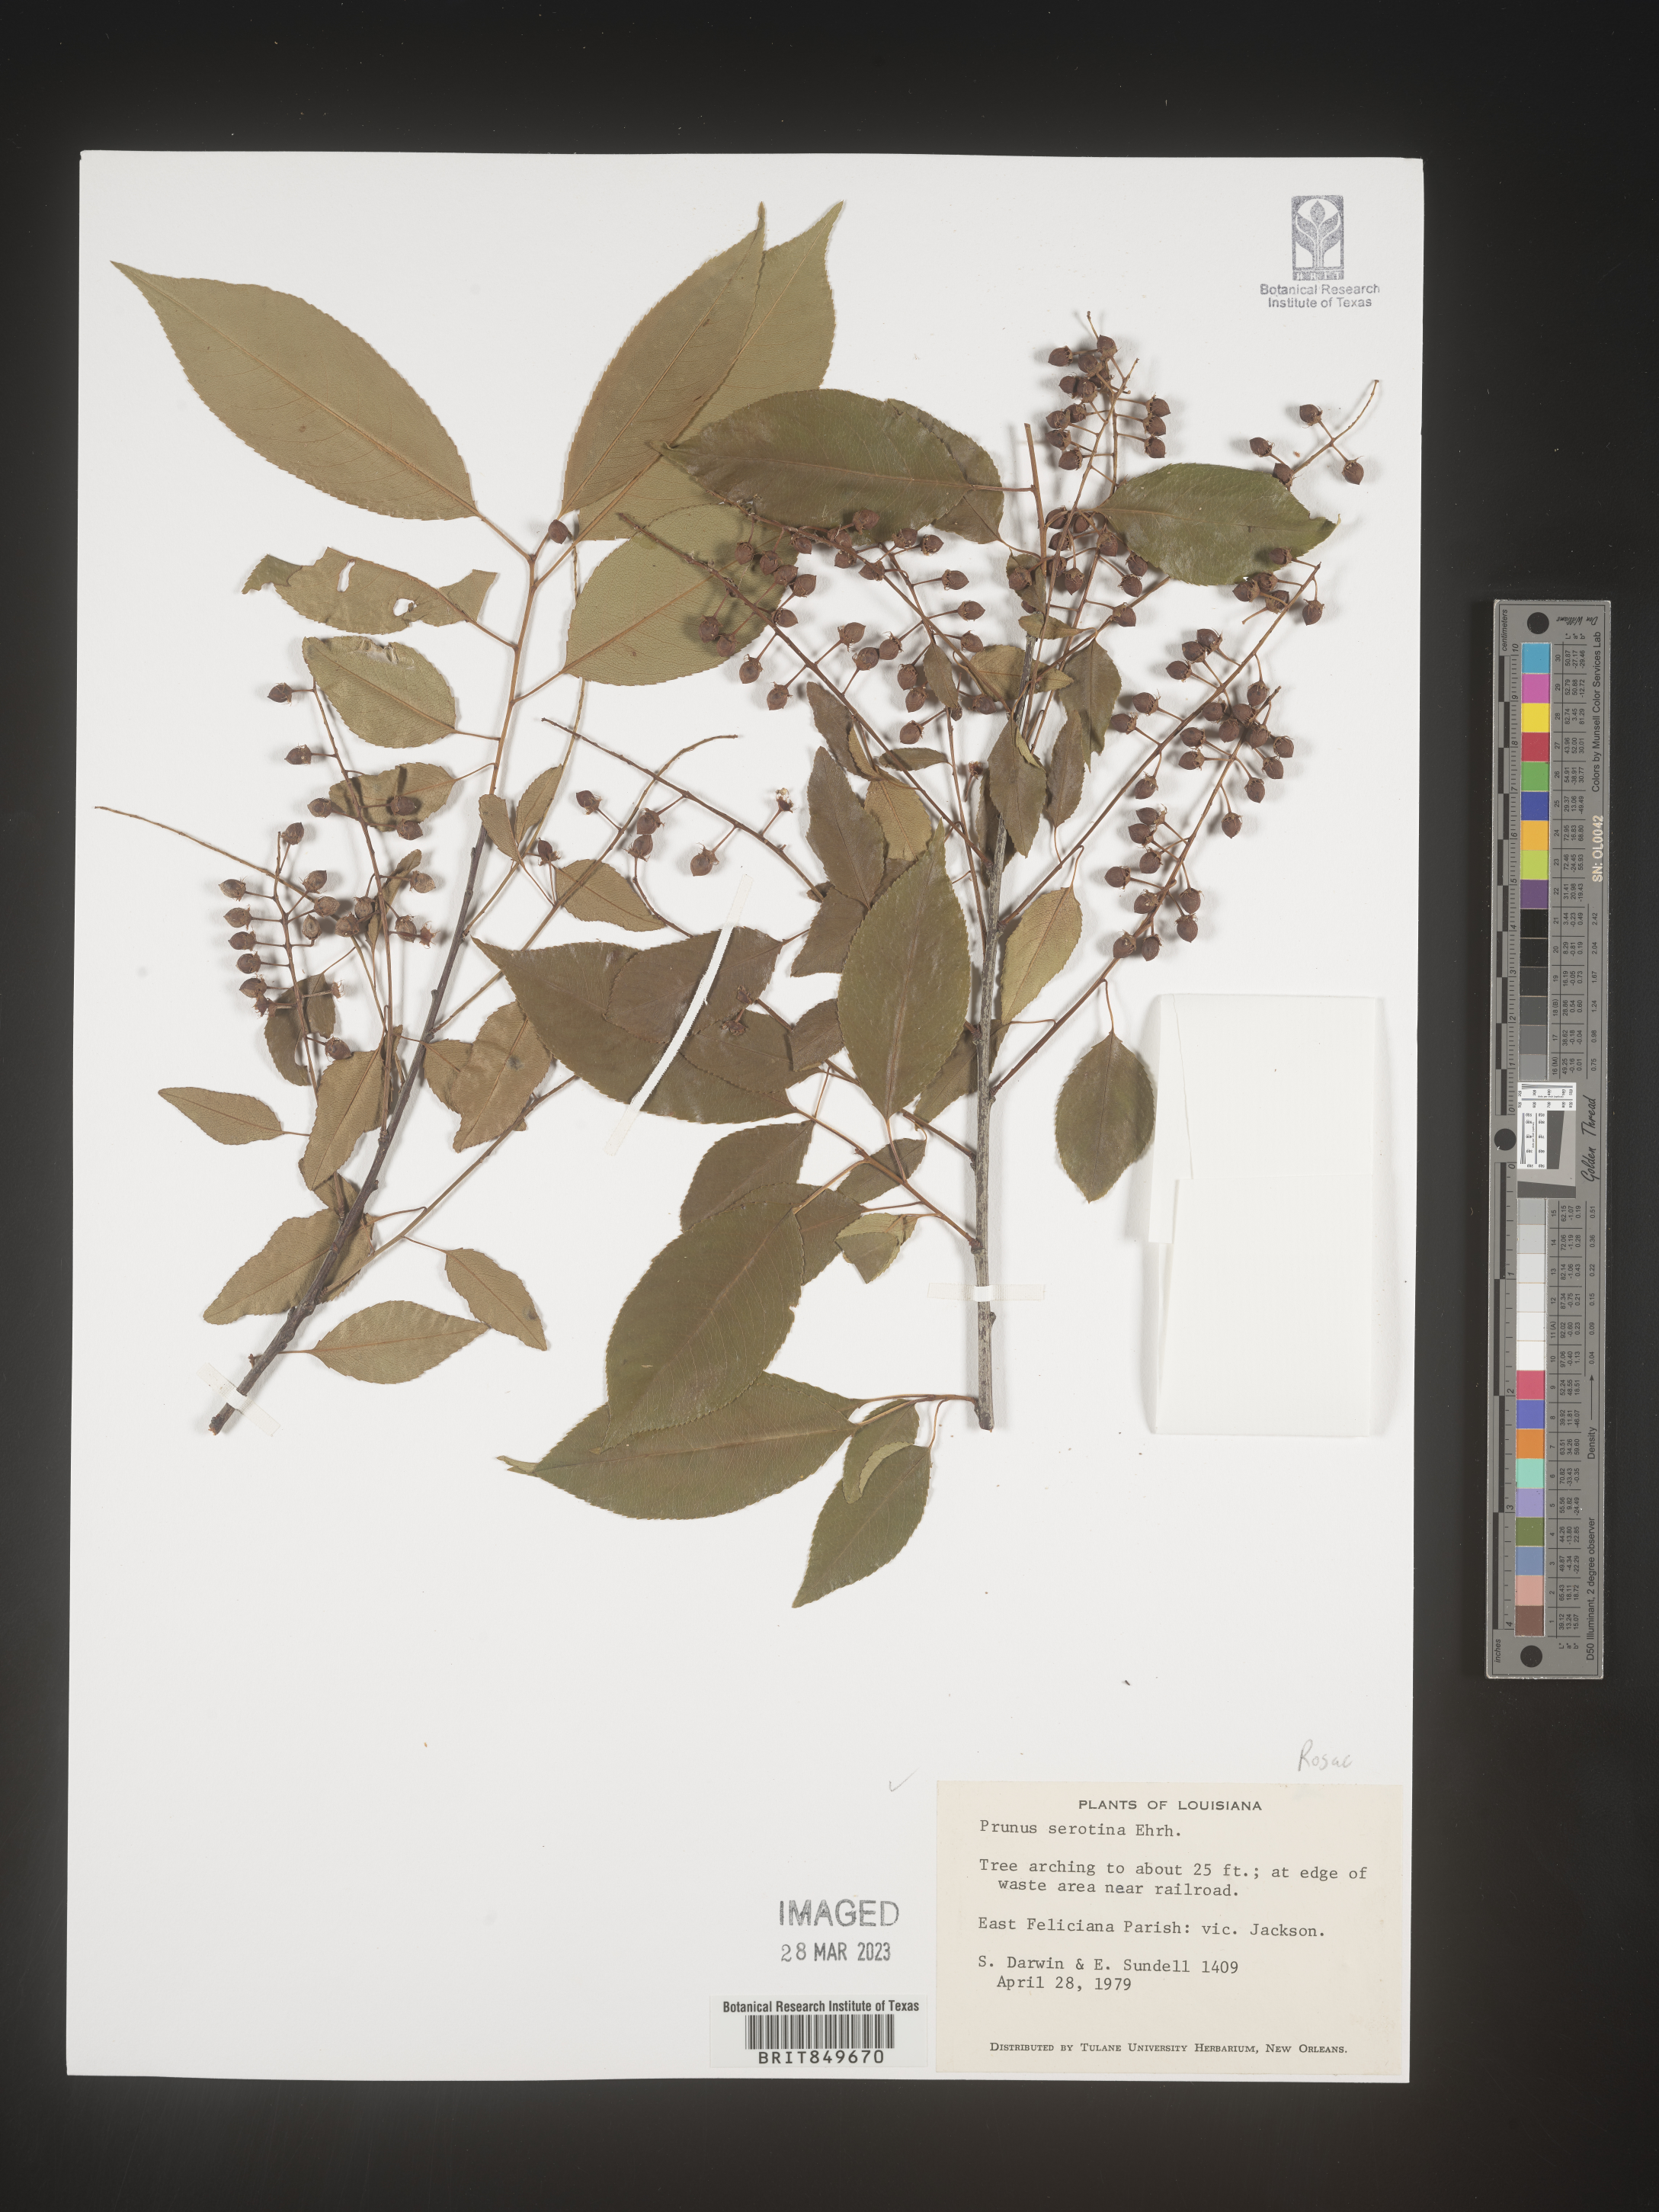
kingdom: Plantae
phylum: Tracheophyta
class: Magnoliopsida
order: Rosales
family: Rosaceae
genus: Prunus
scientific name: Prunus serotina
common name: Black cherry
